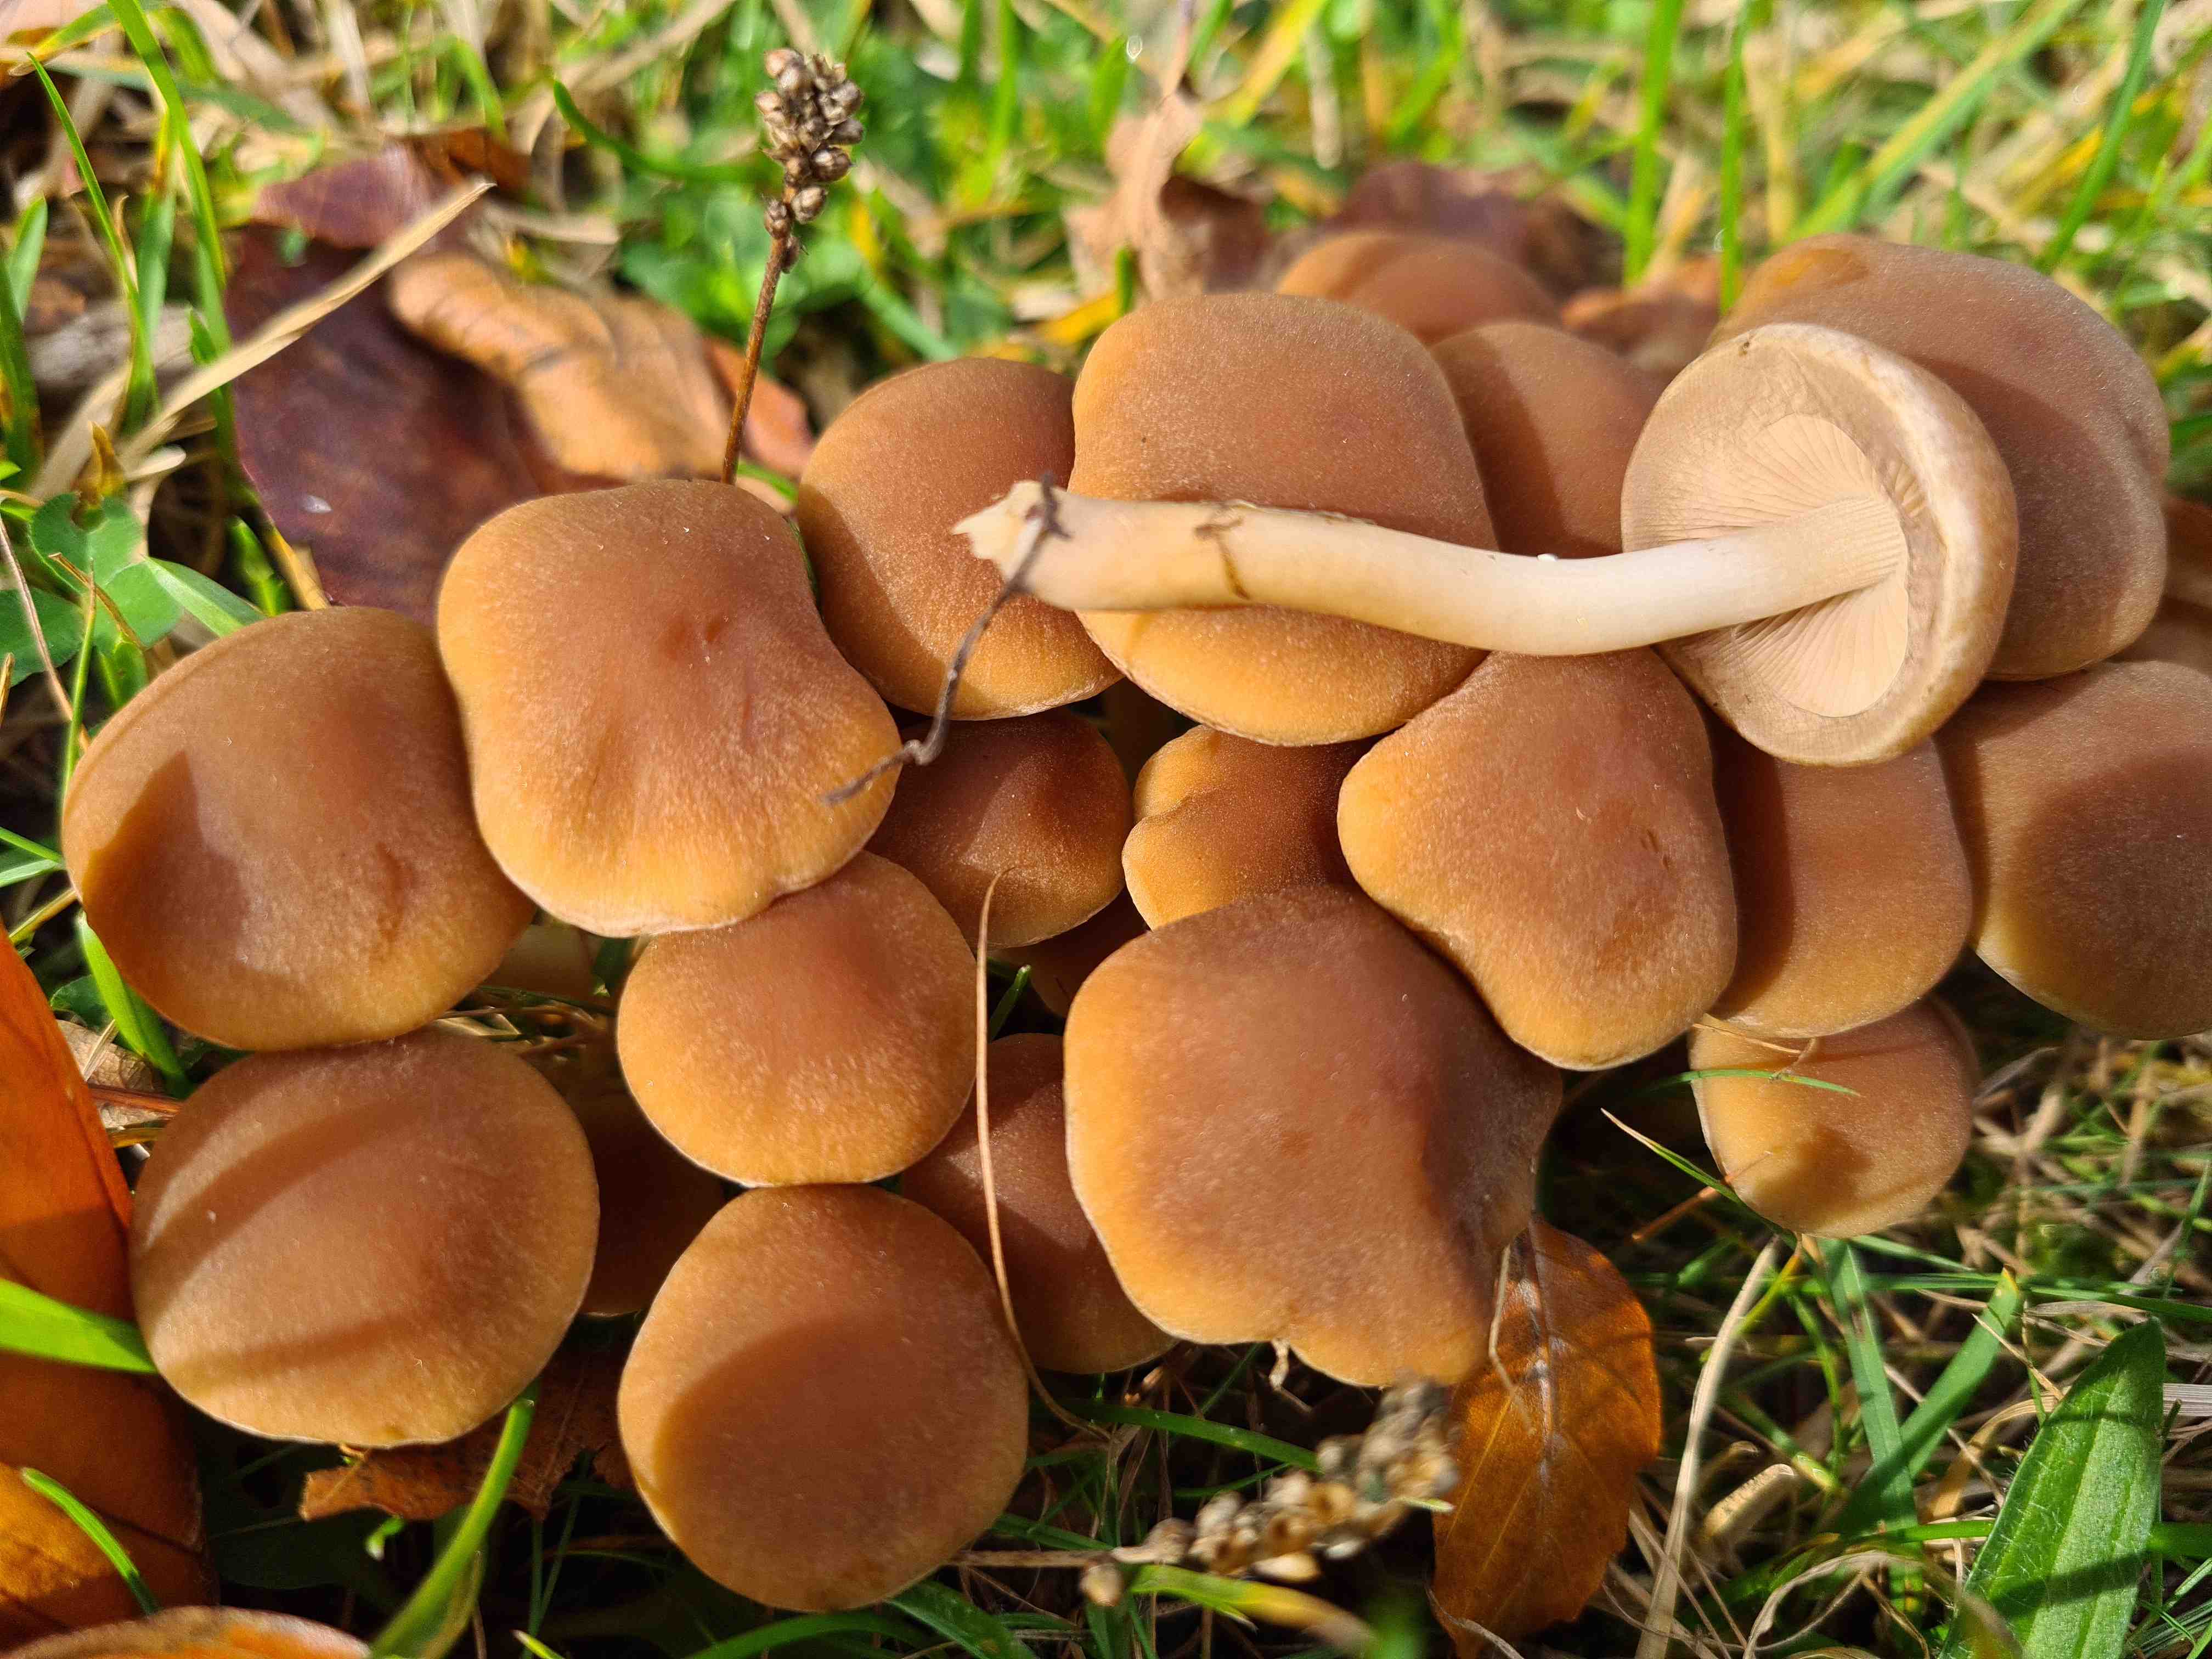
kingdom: Fungi
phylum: Basidiomycota
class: Agaricomycetes
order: Agaricales
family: Psathyrellaceae
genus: Psathyrella
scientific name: Psathyrella piluliformis
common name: lysstokket mørkhat
